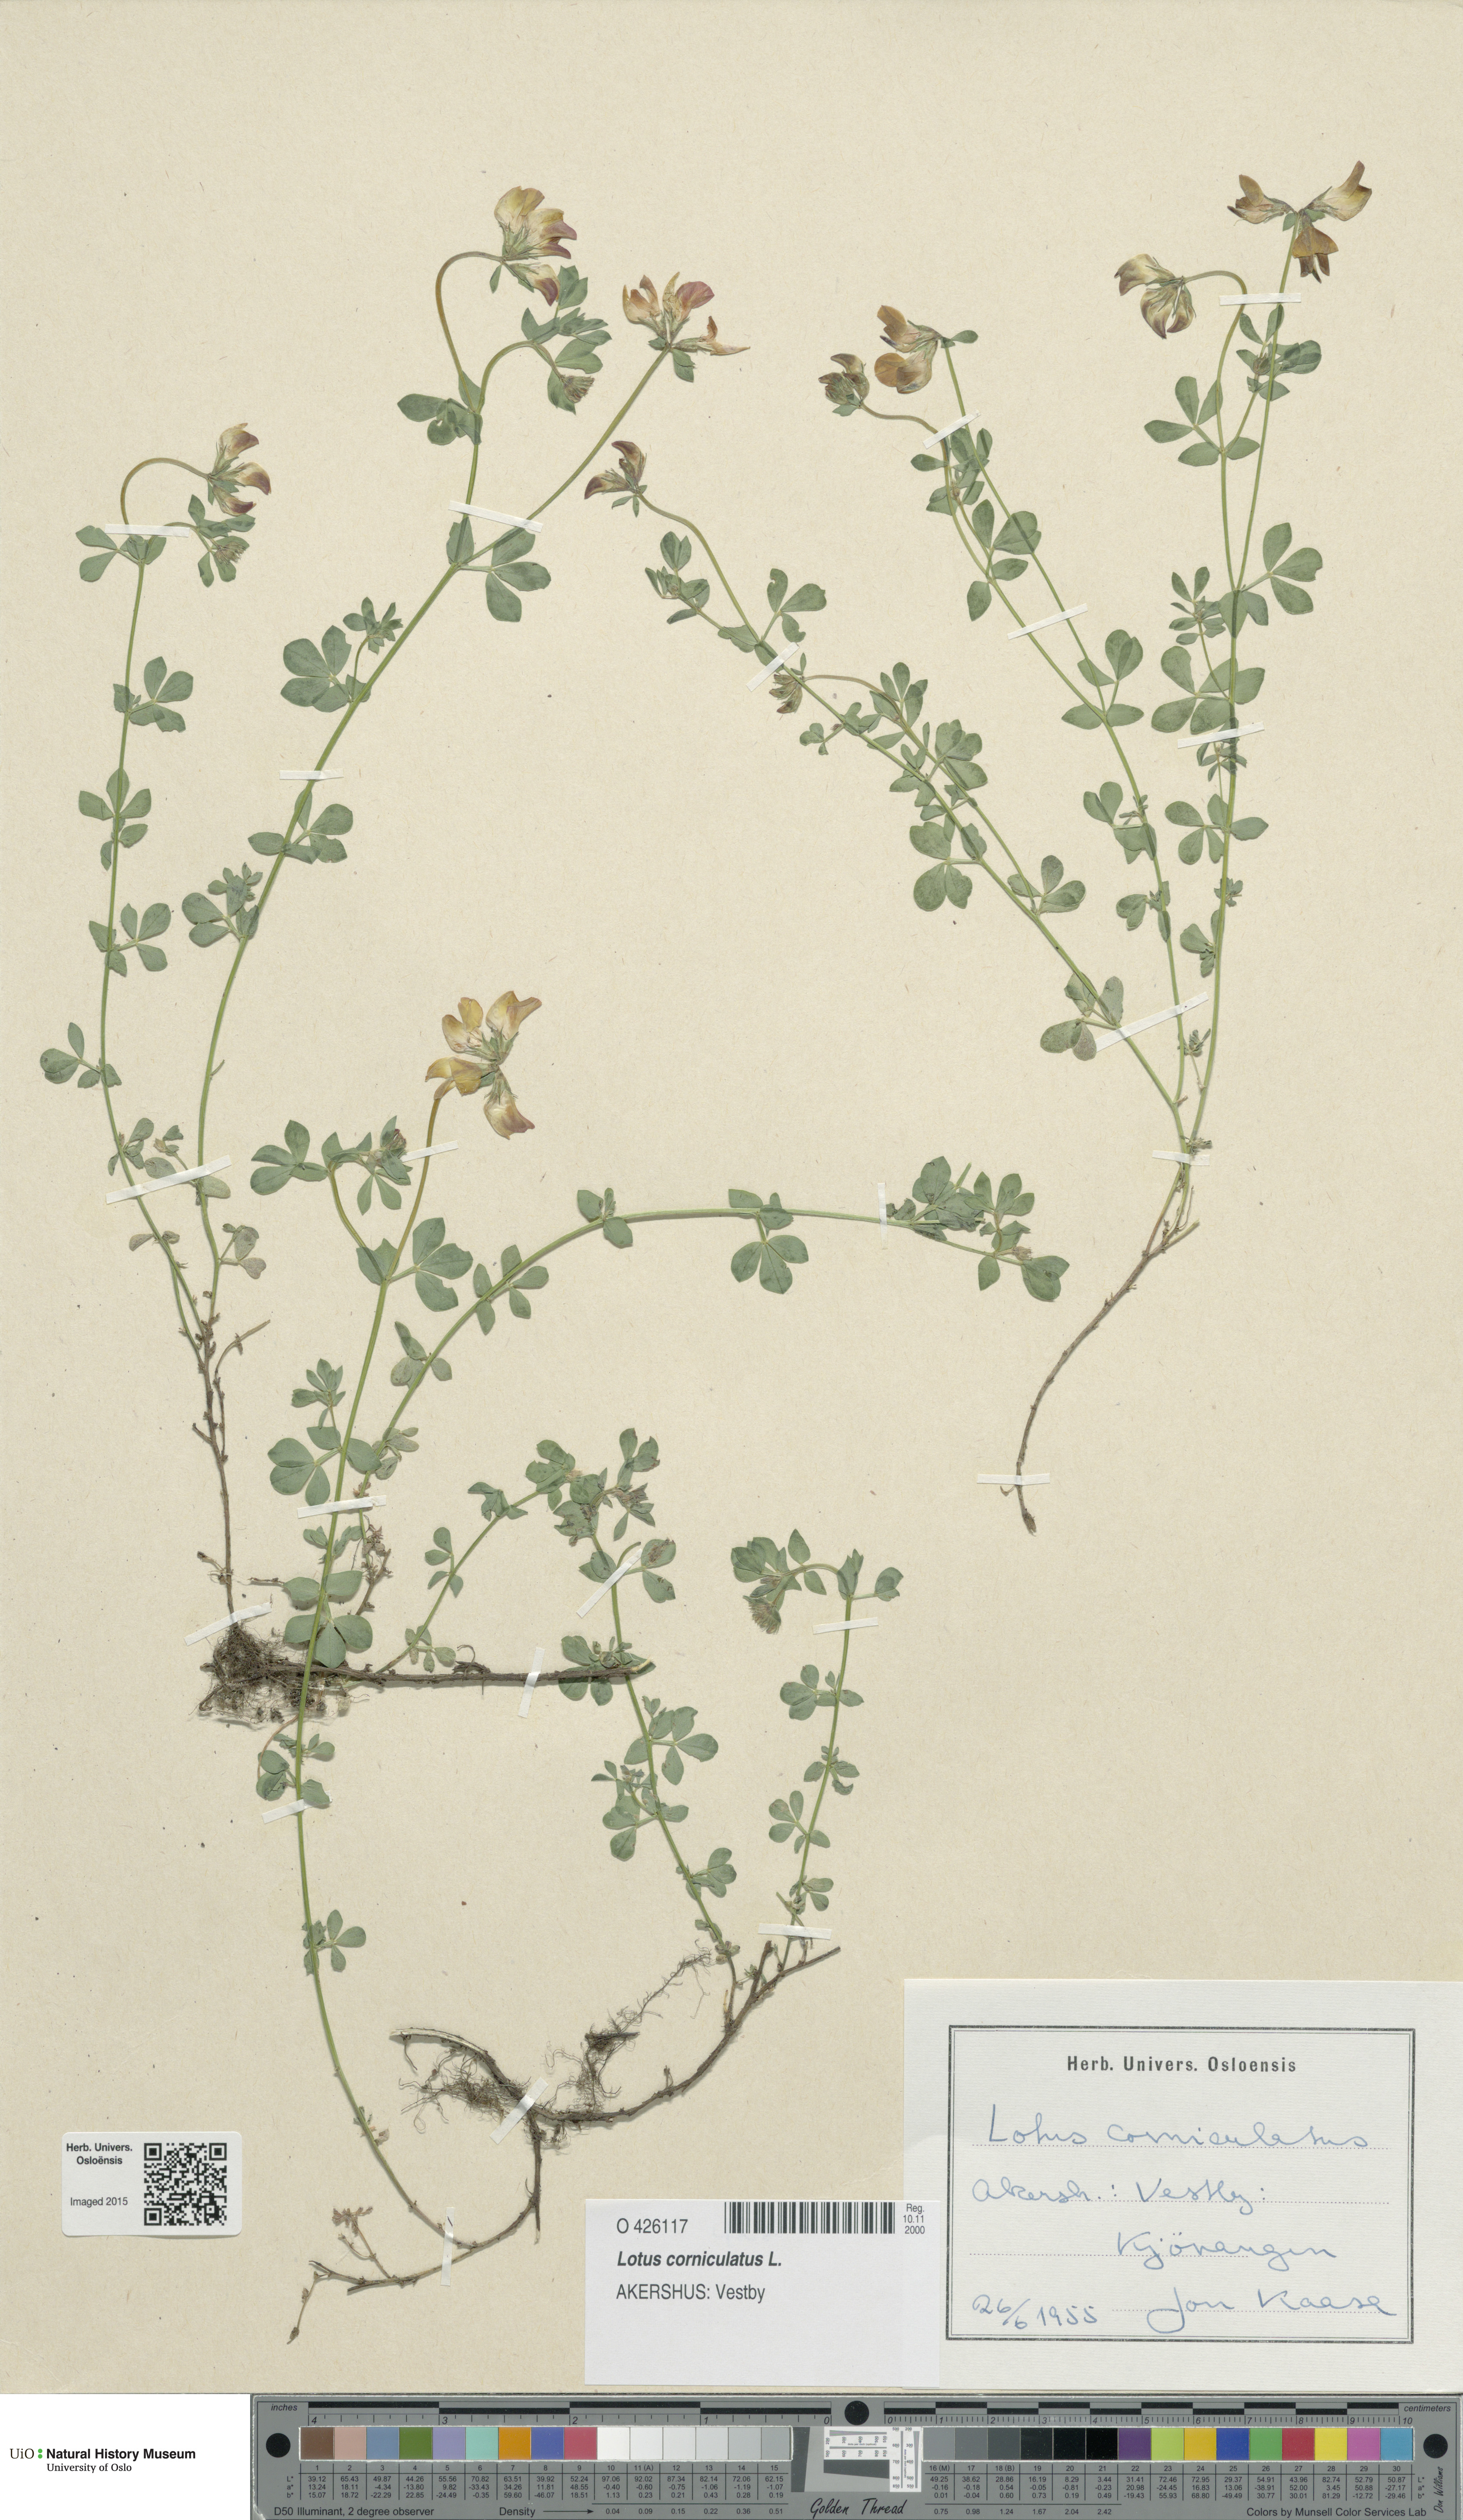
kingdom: Plantae
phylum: Tracheophyta
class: Magnoliopsida
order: Fabales
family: Fabaceae
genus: Lotus
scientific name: Lotus corniculatus
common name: Common bird's-foot-trefoil
